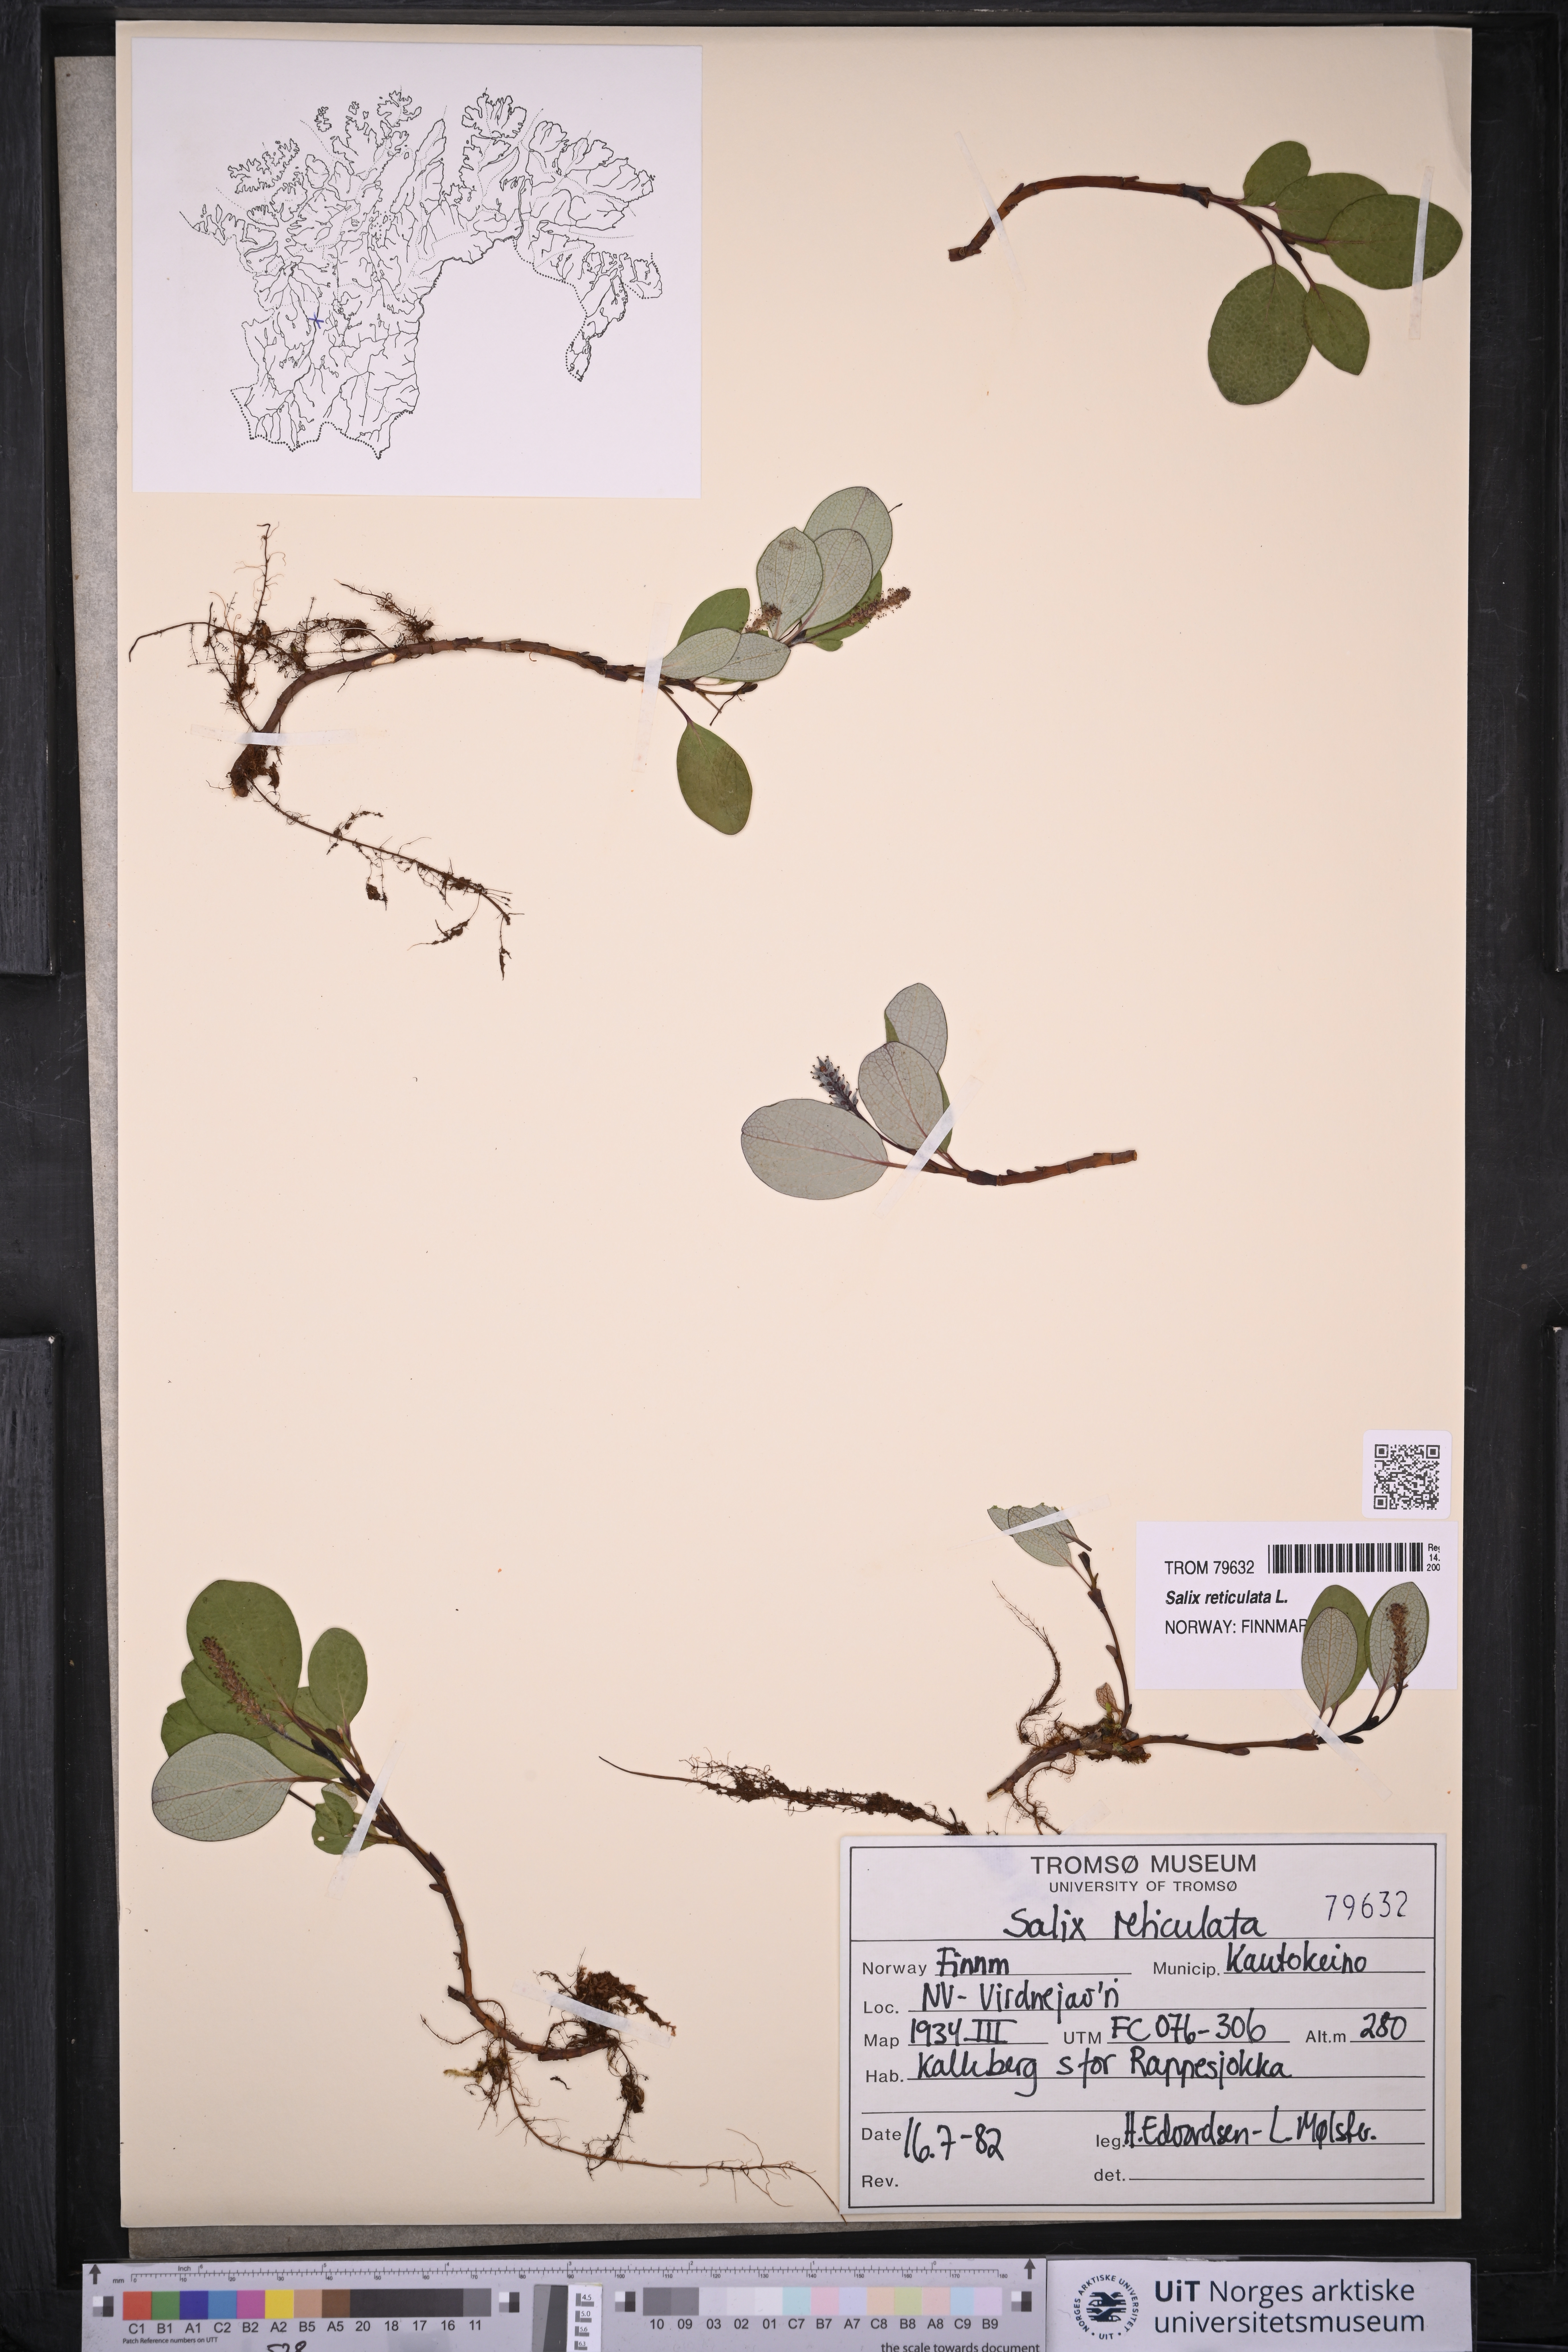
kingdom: Plantae
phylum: Tracheophyta
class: Magnoliopsida
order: Malpighiales
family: Salicaceae
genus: Salix
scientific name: Salix reticulata
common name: Net-leaved willow
